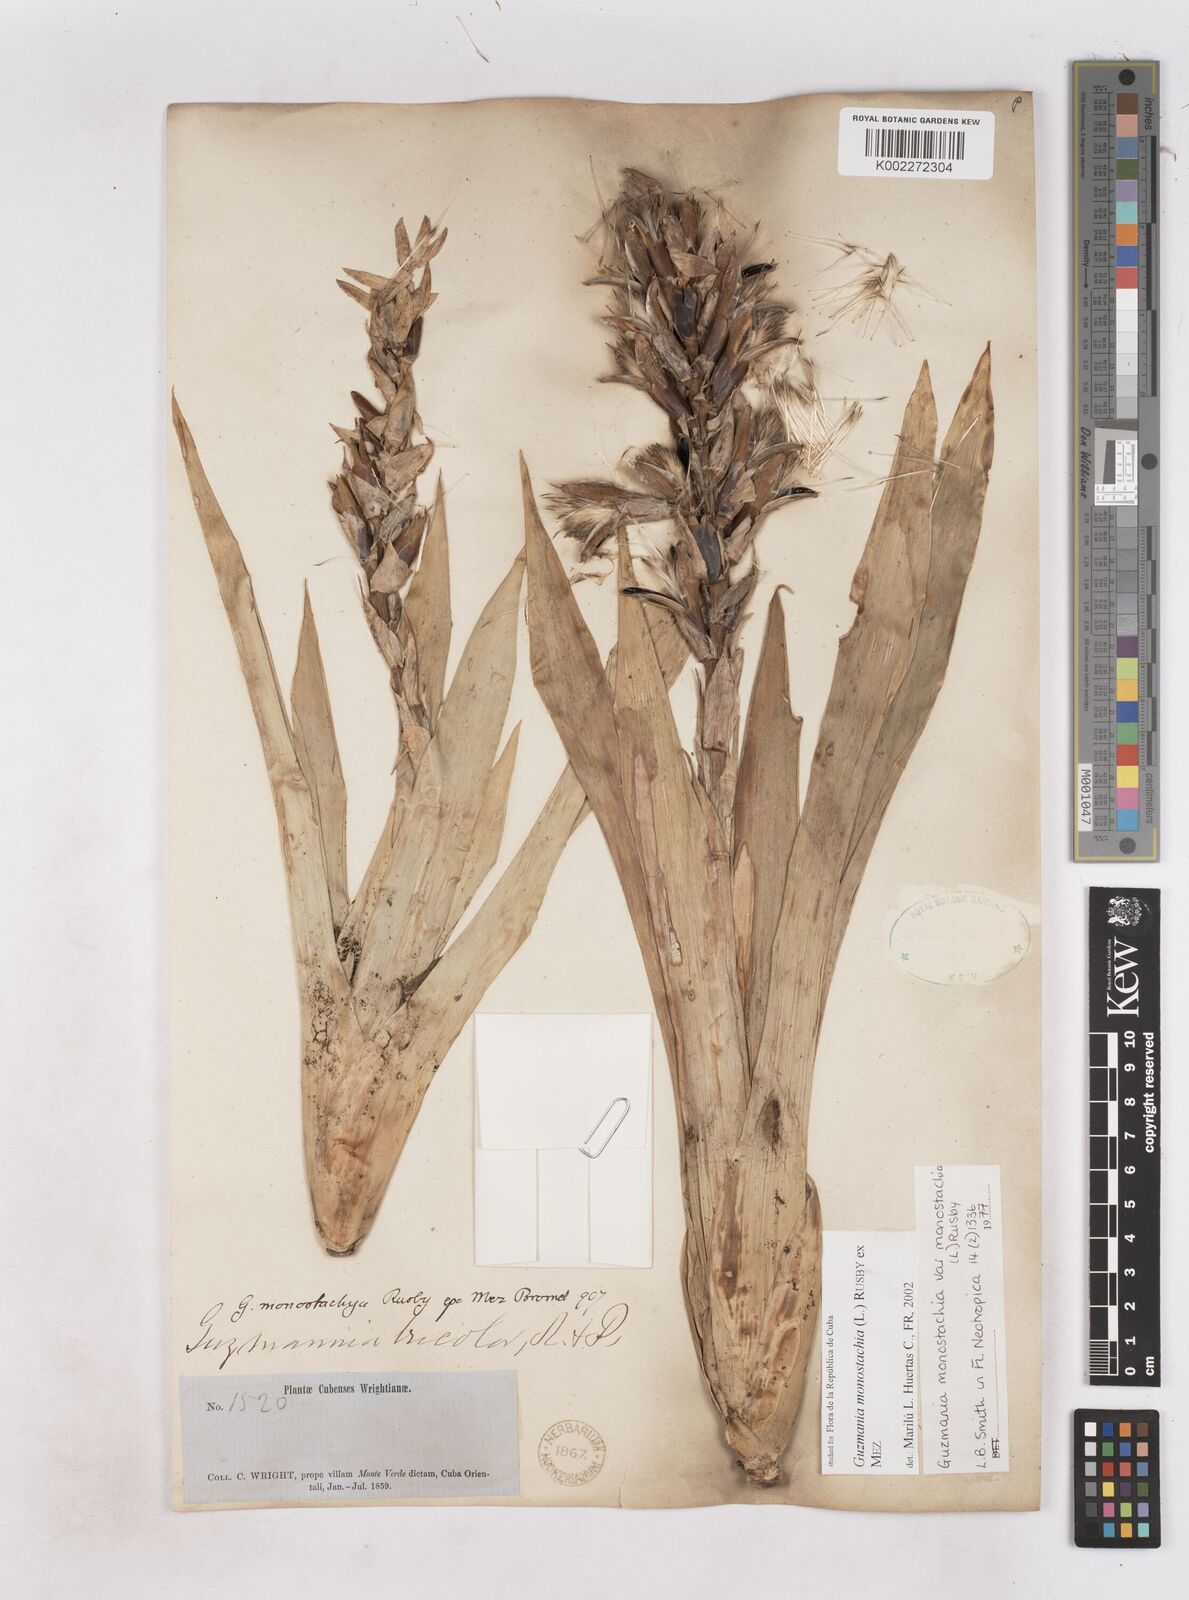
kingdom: Plantae
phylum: Tracheophyta
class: Liliopsida
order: Poales
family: Bromeliaceae
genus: Guzmania
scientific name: Guzmania monostachia
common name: West indian tufted airplant
